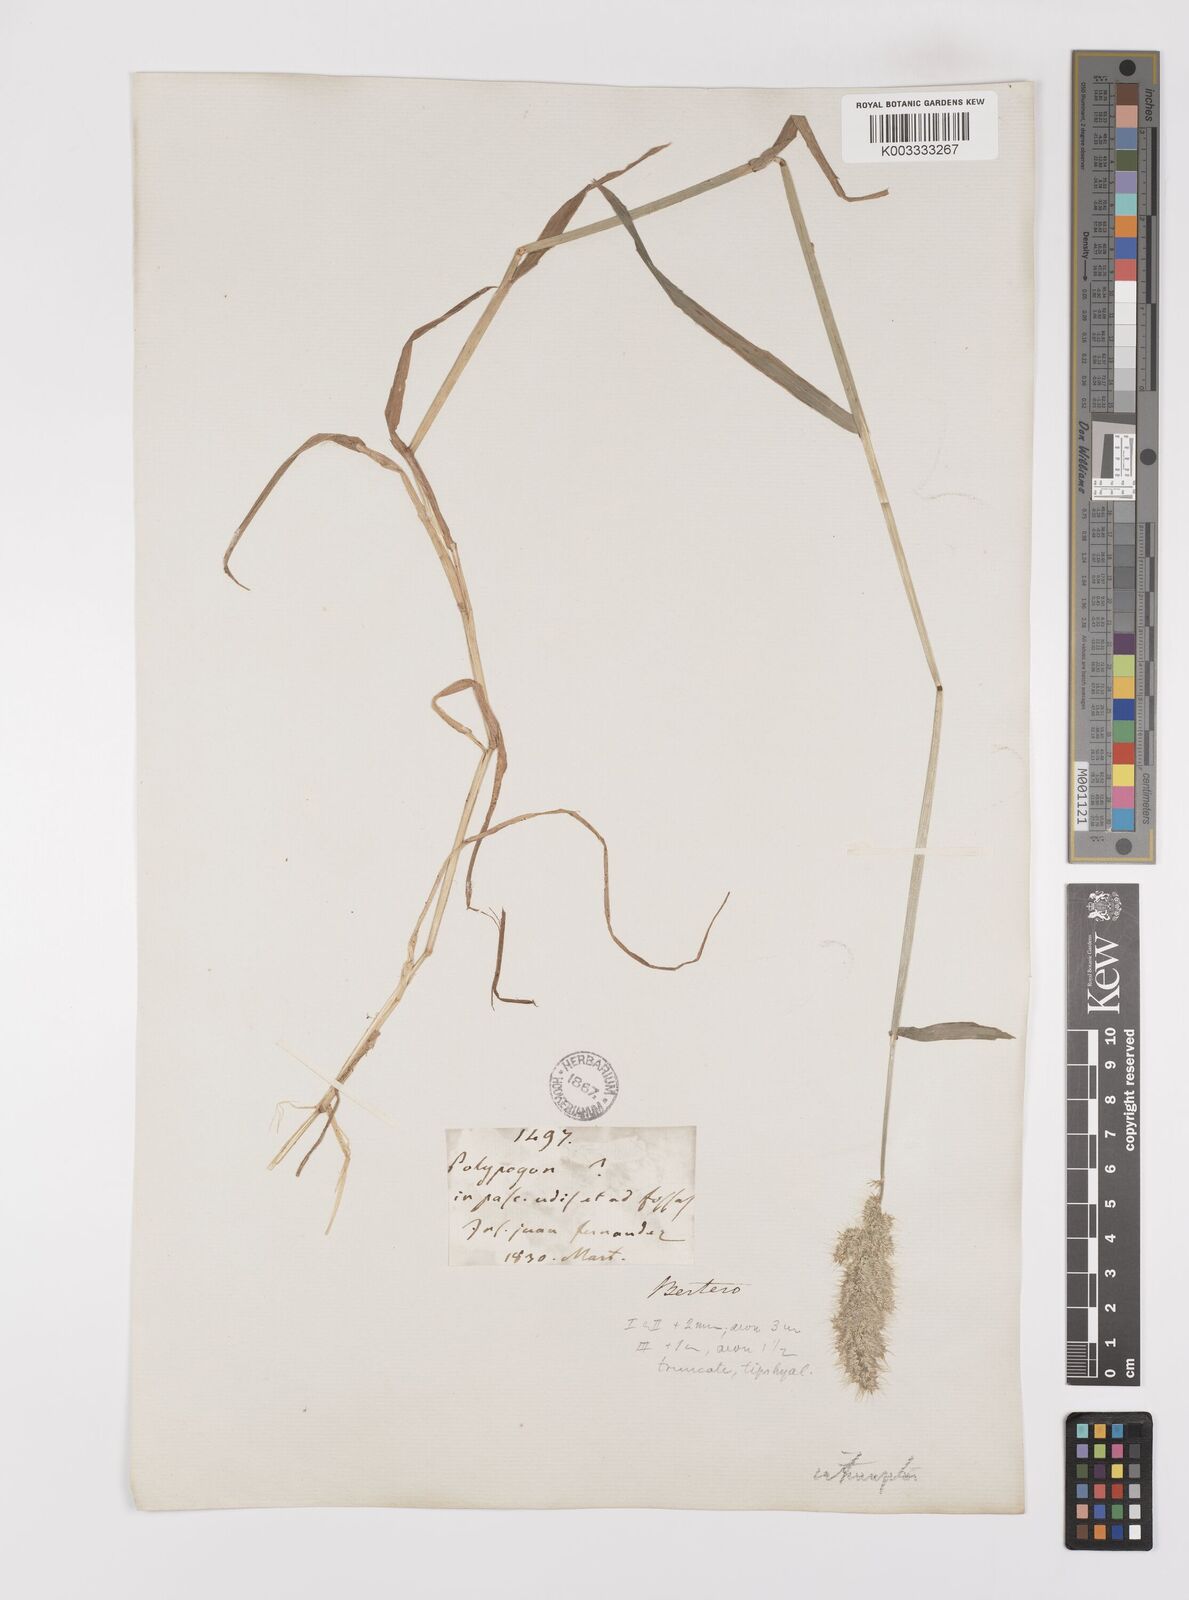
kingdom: Plantae
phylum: Tracheophyta
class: Liliopsida
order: Poales
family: Poaceae
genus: Polypogon
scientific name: Polypogon interruptus
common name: Ditch polypogon
